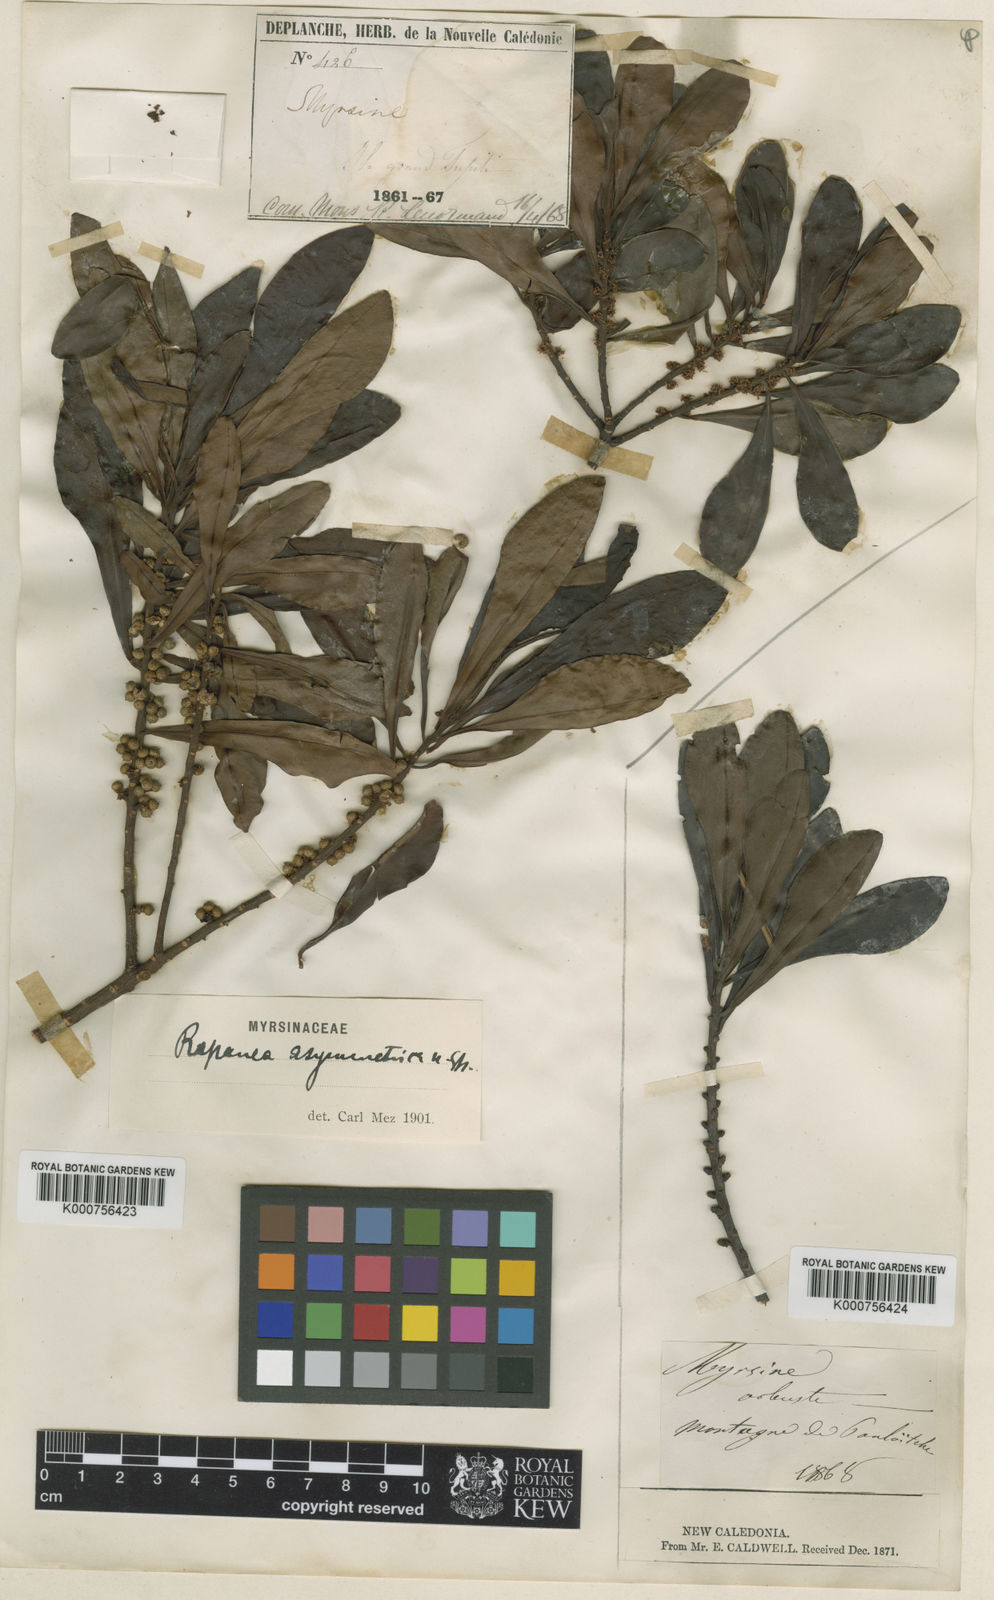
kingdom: Plantae
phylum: Tracheophyta
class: Magnoliopsida
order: Ericales
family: Primulaceae
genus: Myrsine
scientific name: Myrsine asymmetrica
